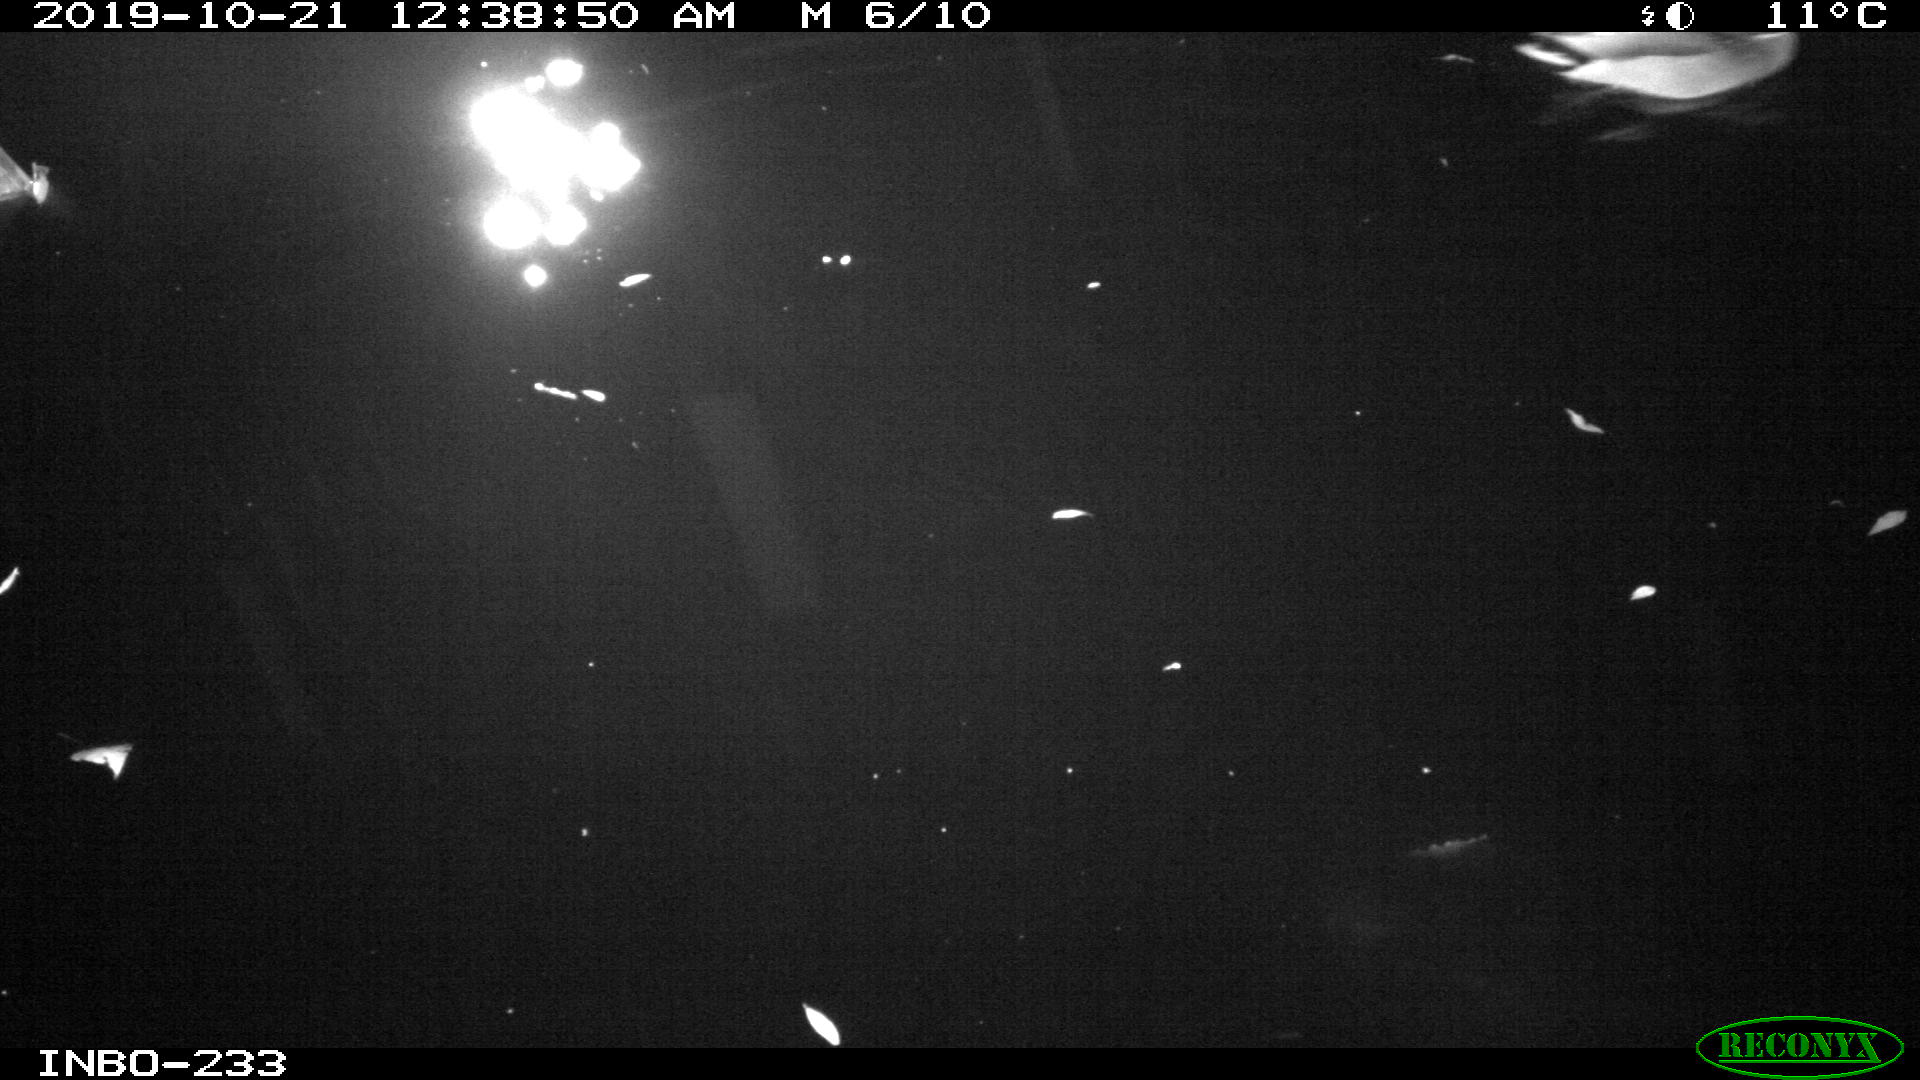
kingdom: Animalia
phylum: Chordata
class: Aves
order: Anseriformes
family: Anatidae
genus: Anas
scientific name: Anas platyrhynchos
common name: Mallard
